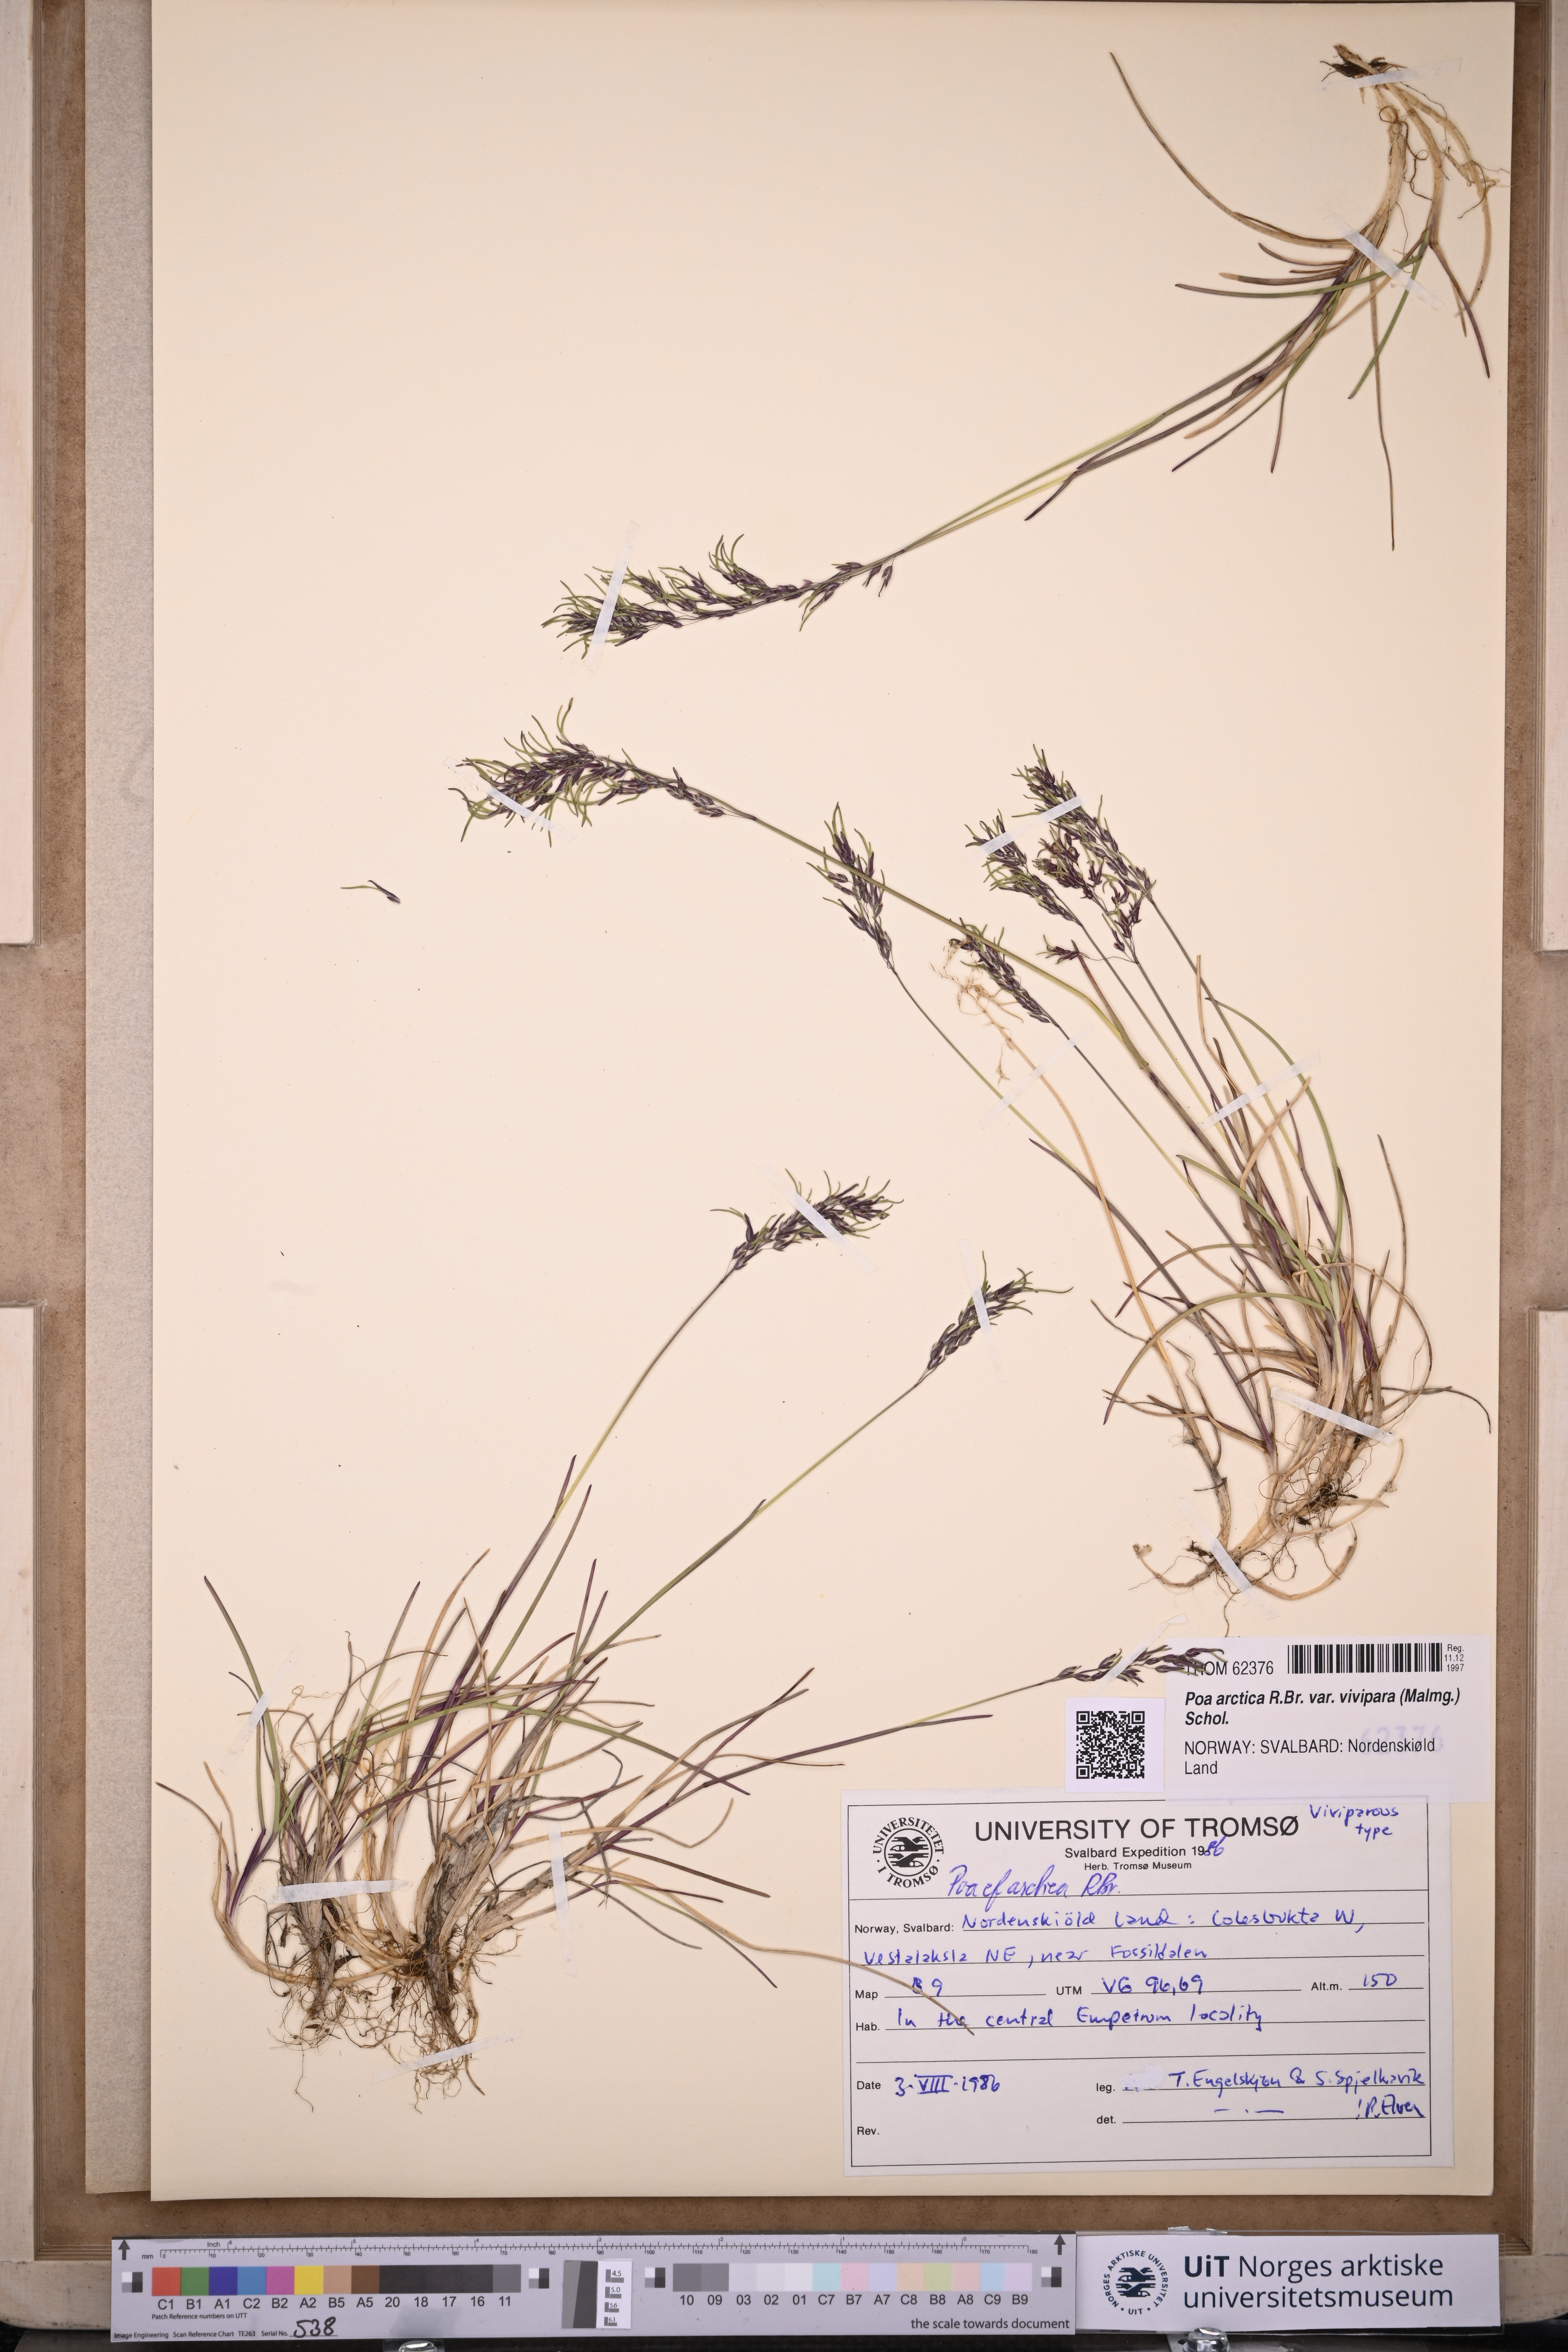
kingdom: Plantae
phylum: Tracheophyta
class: Liliopsida
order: Poales
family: Poaceae
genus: Poa
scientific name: Poa arctica
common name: Arctic bluegrass
